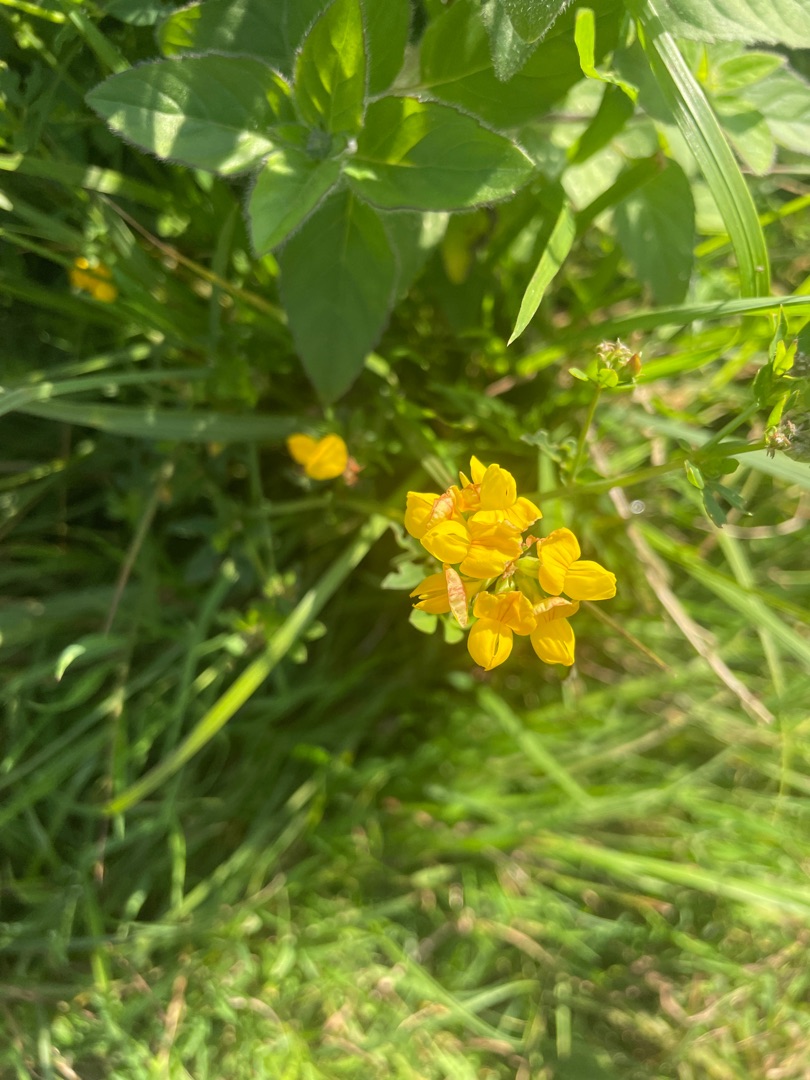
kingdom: Plantae
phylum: Tracheophyta
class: Magnoliopsida
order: Fabales
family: Fabaceae
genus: Lotus
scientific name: Lotus pedunculatus
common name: Sump-kællingetand
